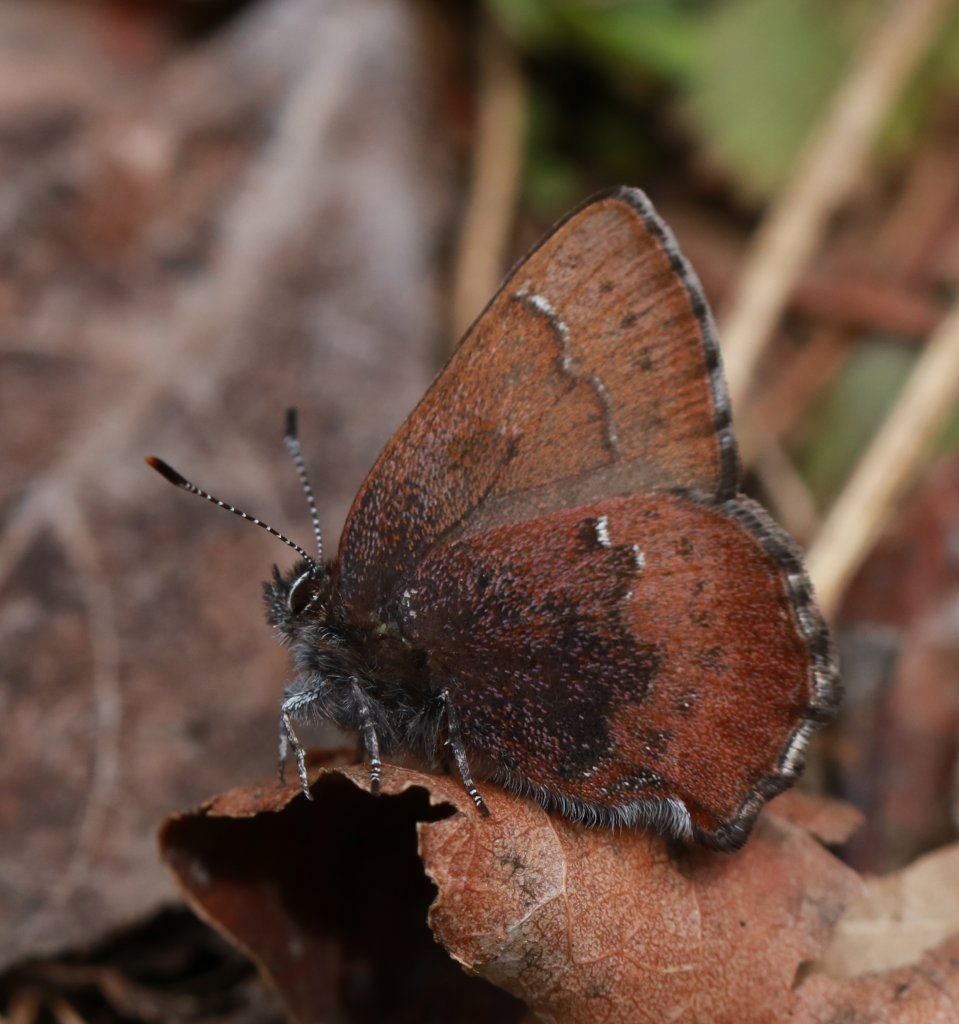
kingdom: Animalia
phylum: Arthropoda
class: Insecta
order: Lepidoptera
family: Lycaenidae
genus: Incisalia
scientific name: Incisalia irioides
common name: Brown Elfin
